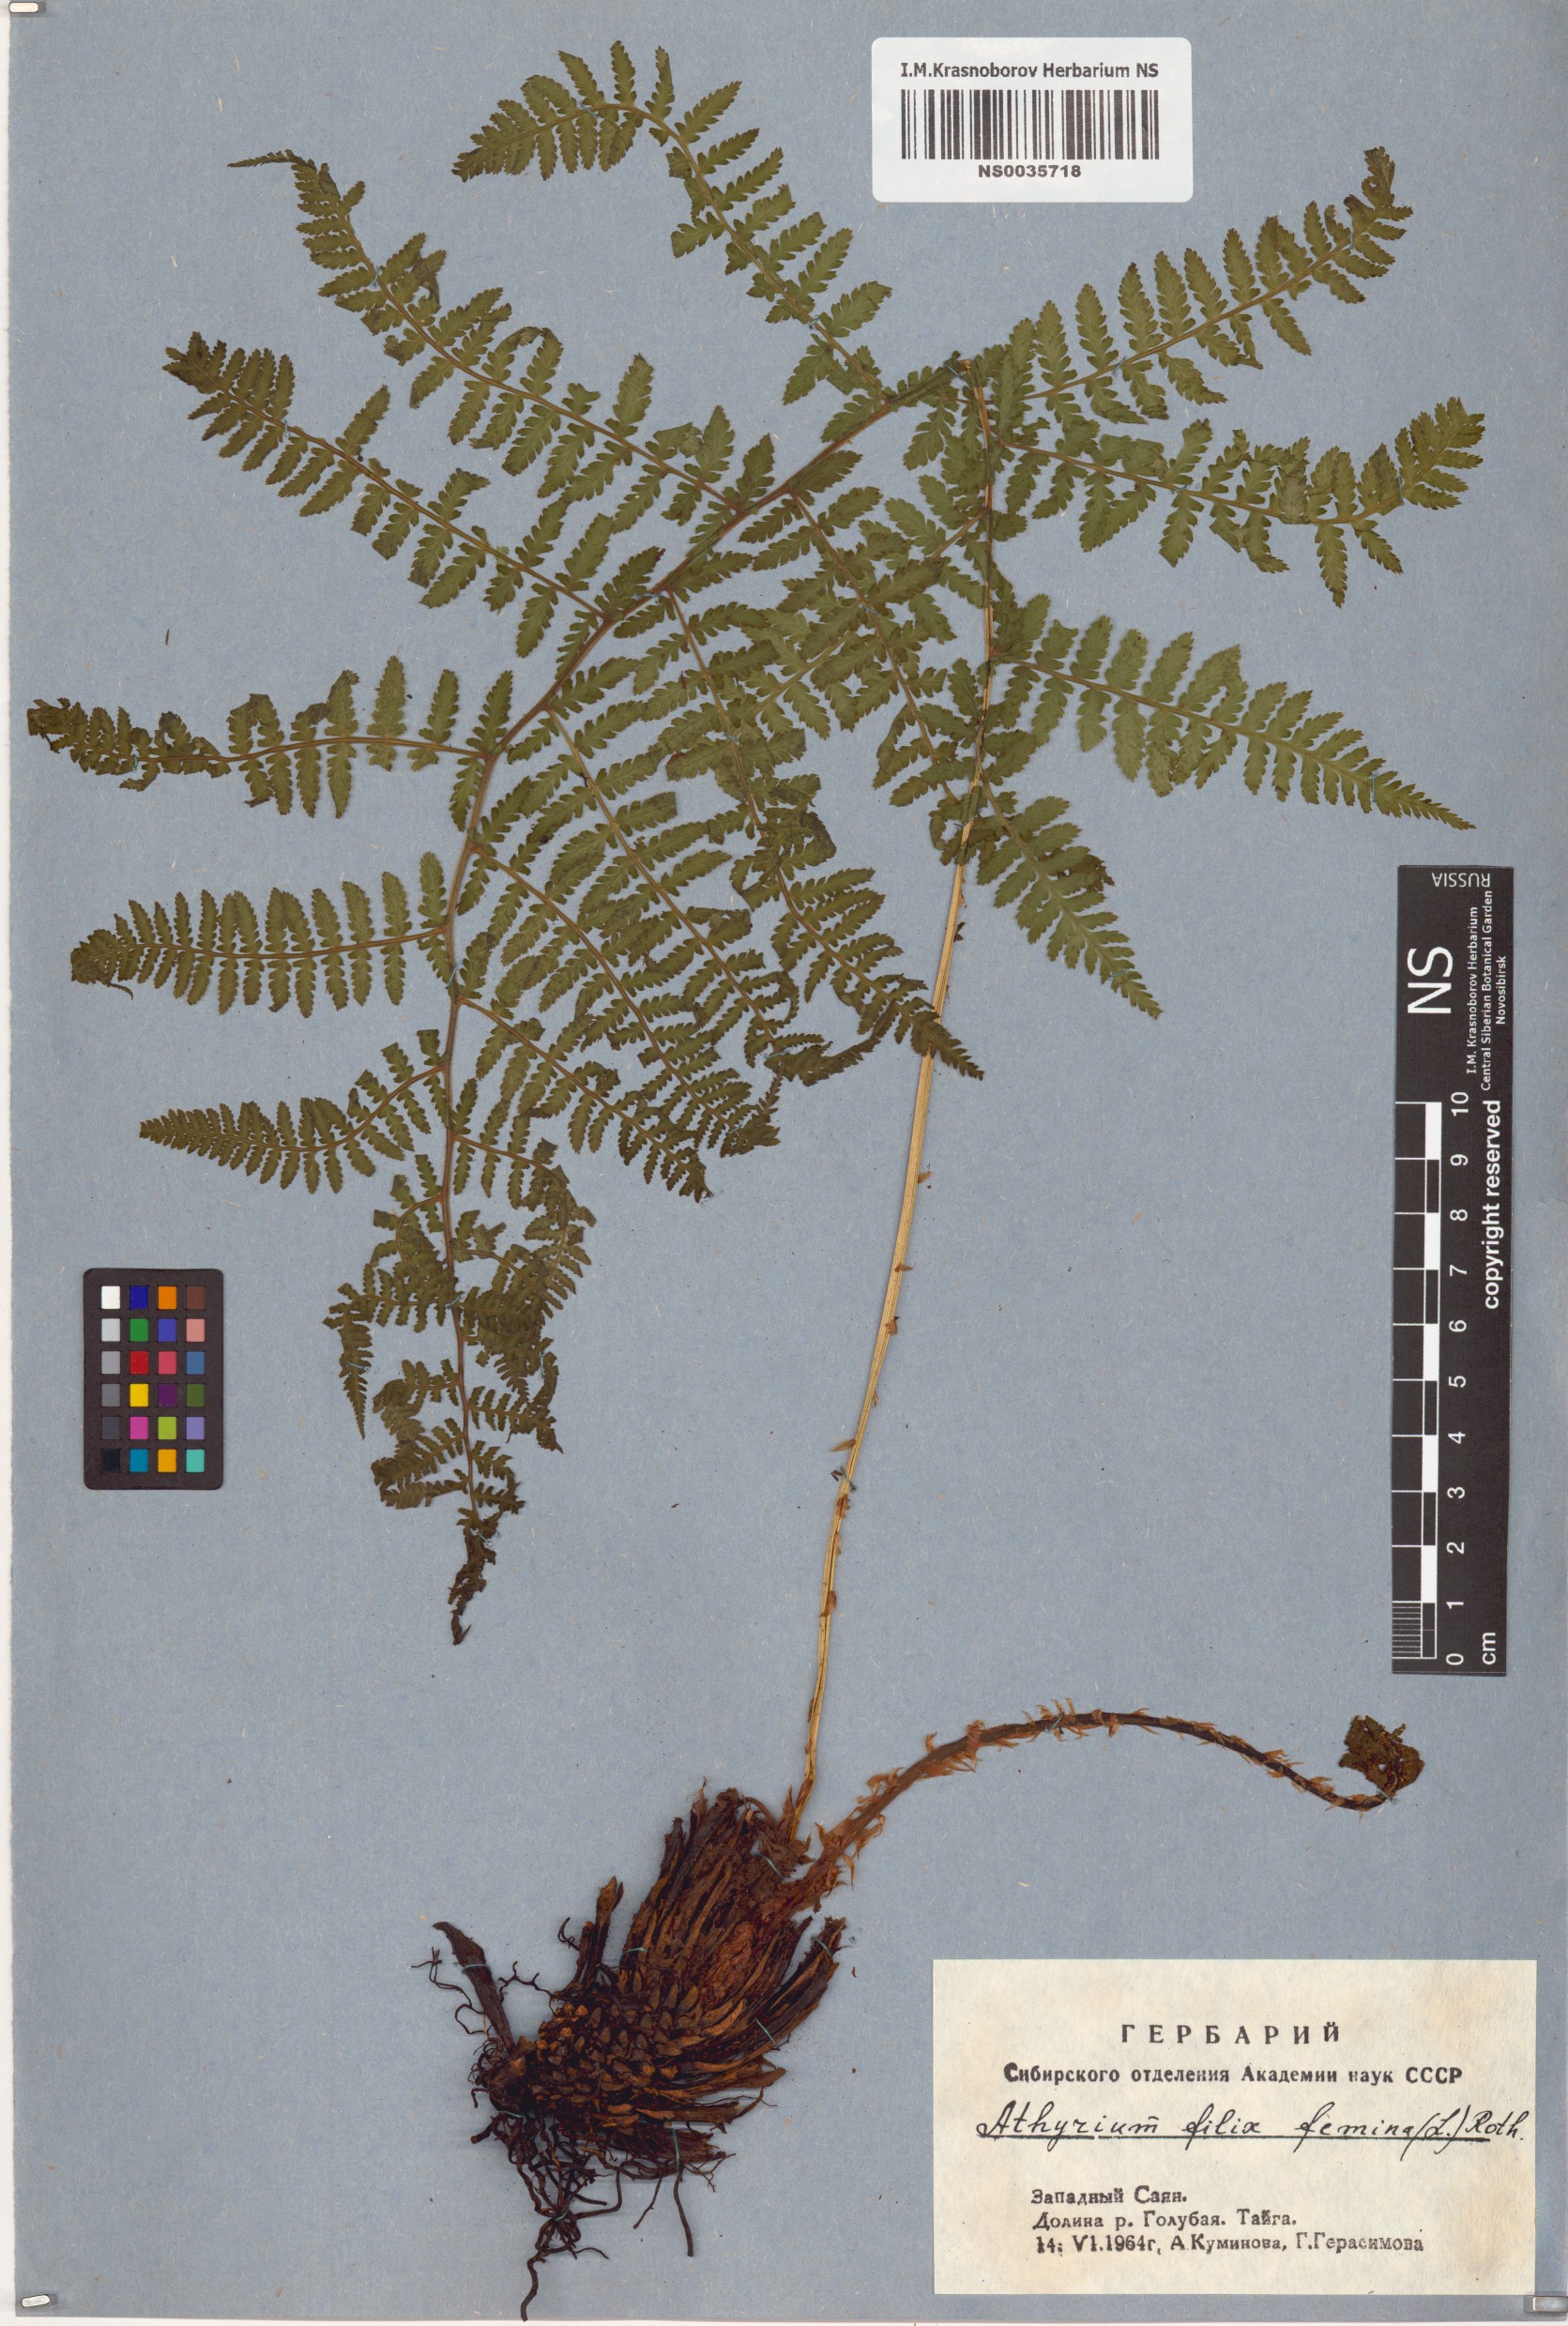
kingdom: Plantae
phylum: Tracheophyta
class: Polypodiopsida
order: Polypodiales
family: Athyriaceae
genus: Athyrium
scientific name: Athyrium filix-femina
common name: Lady fern
